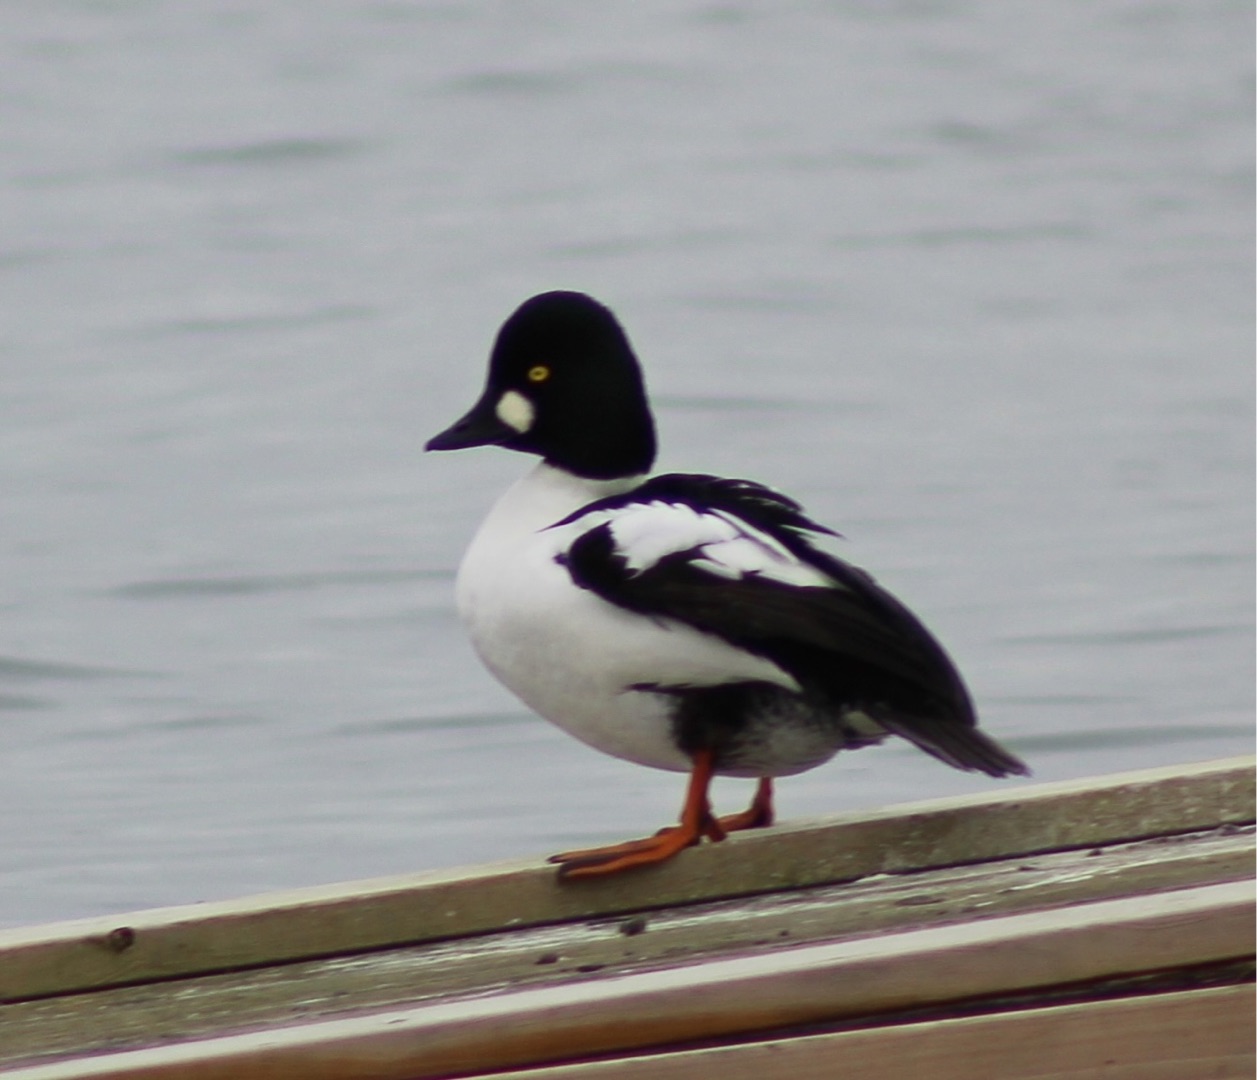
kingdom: Animalia
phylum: Chordata
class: Aves
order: Anseriformes
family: Anatidae
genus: Bucephala
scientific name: Bucephala clangula
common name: Hvinand
